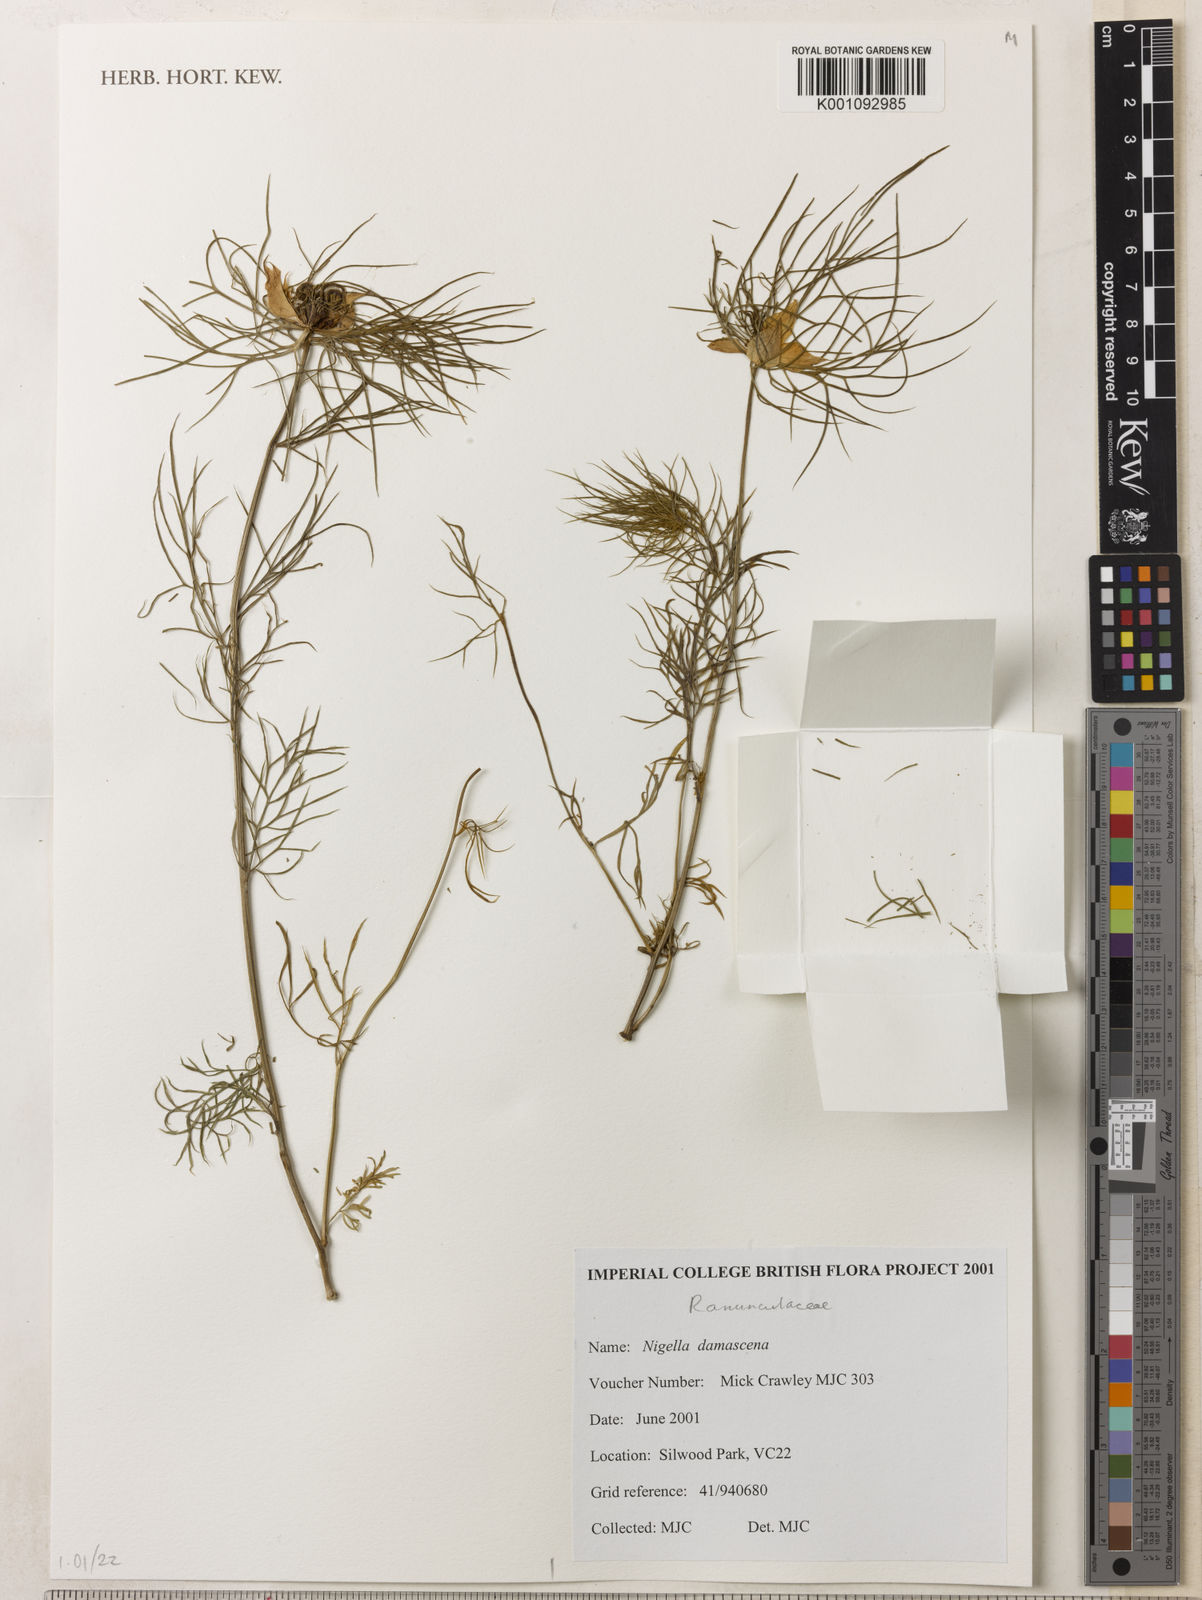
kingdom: Plantae
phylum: Tracheophyta
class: Magnoliopsida
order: Ranunculales
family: Ranunculaceae
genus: Nigella
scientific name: Nigella damascena
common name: Love-in-a-mist
